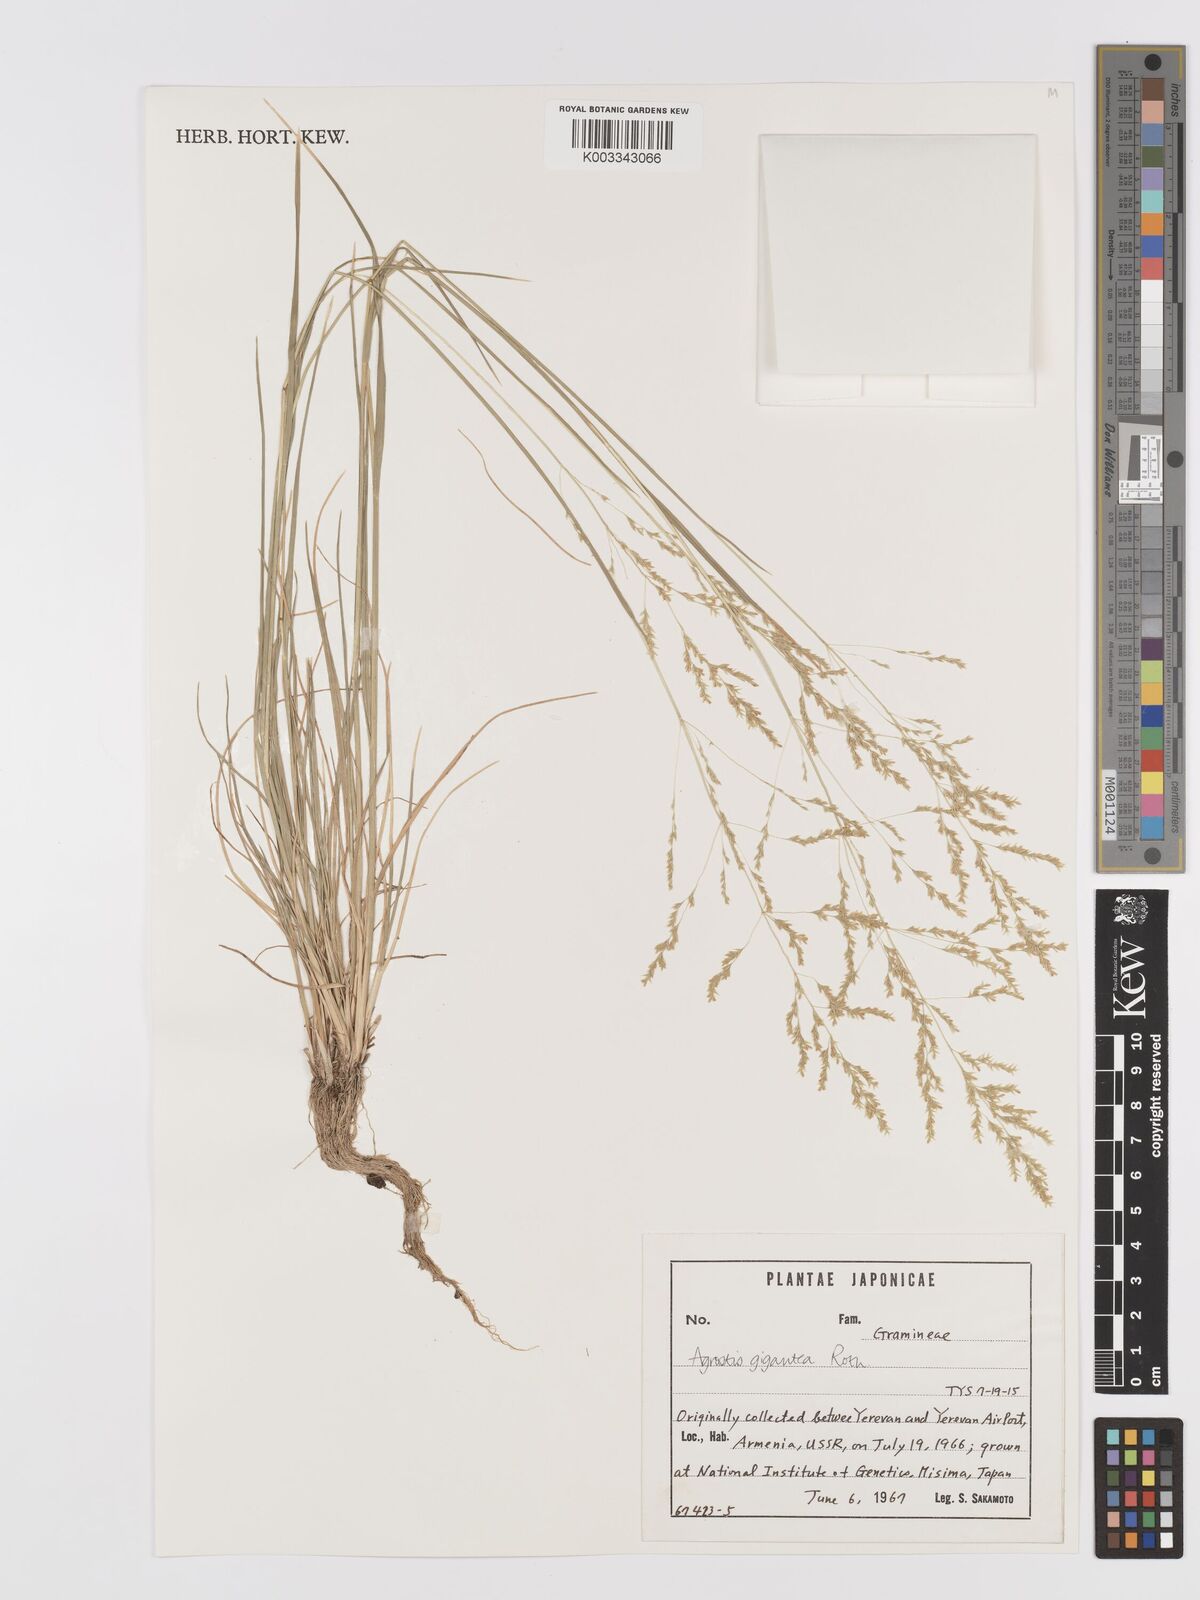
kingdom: Plantae
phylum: Tracheophyta
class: Liliopsida
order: Poales
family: Poaceae
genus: Agrostis
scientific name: Agrostis gigantea
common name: Black bent
